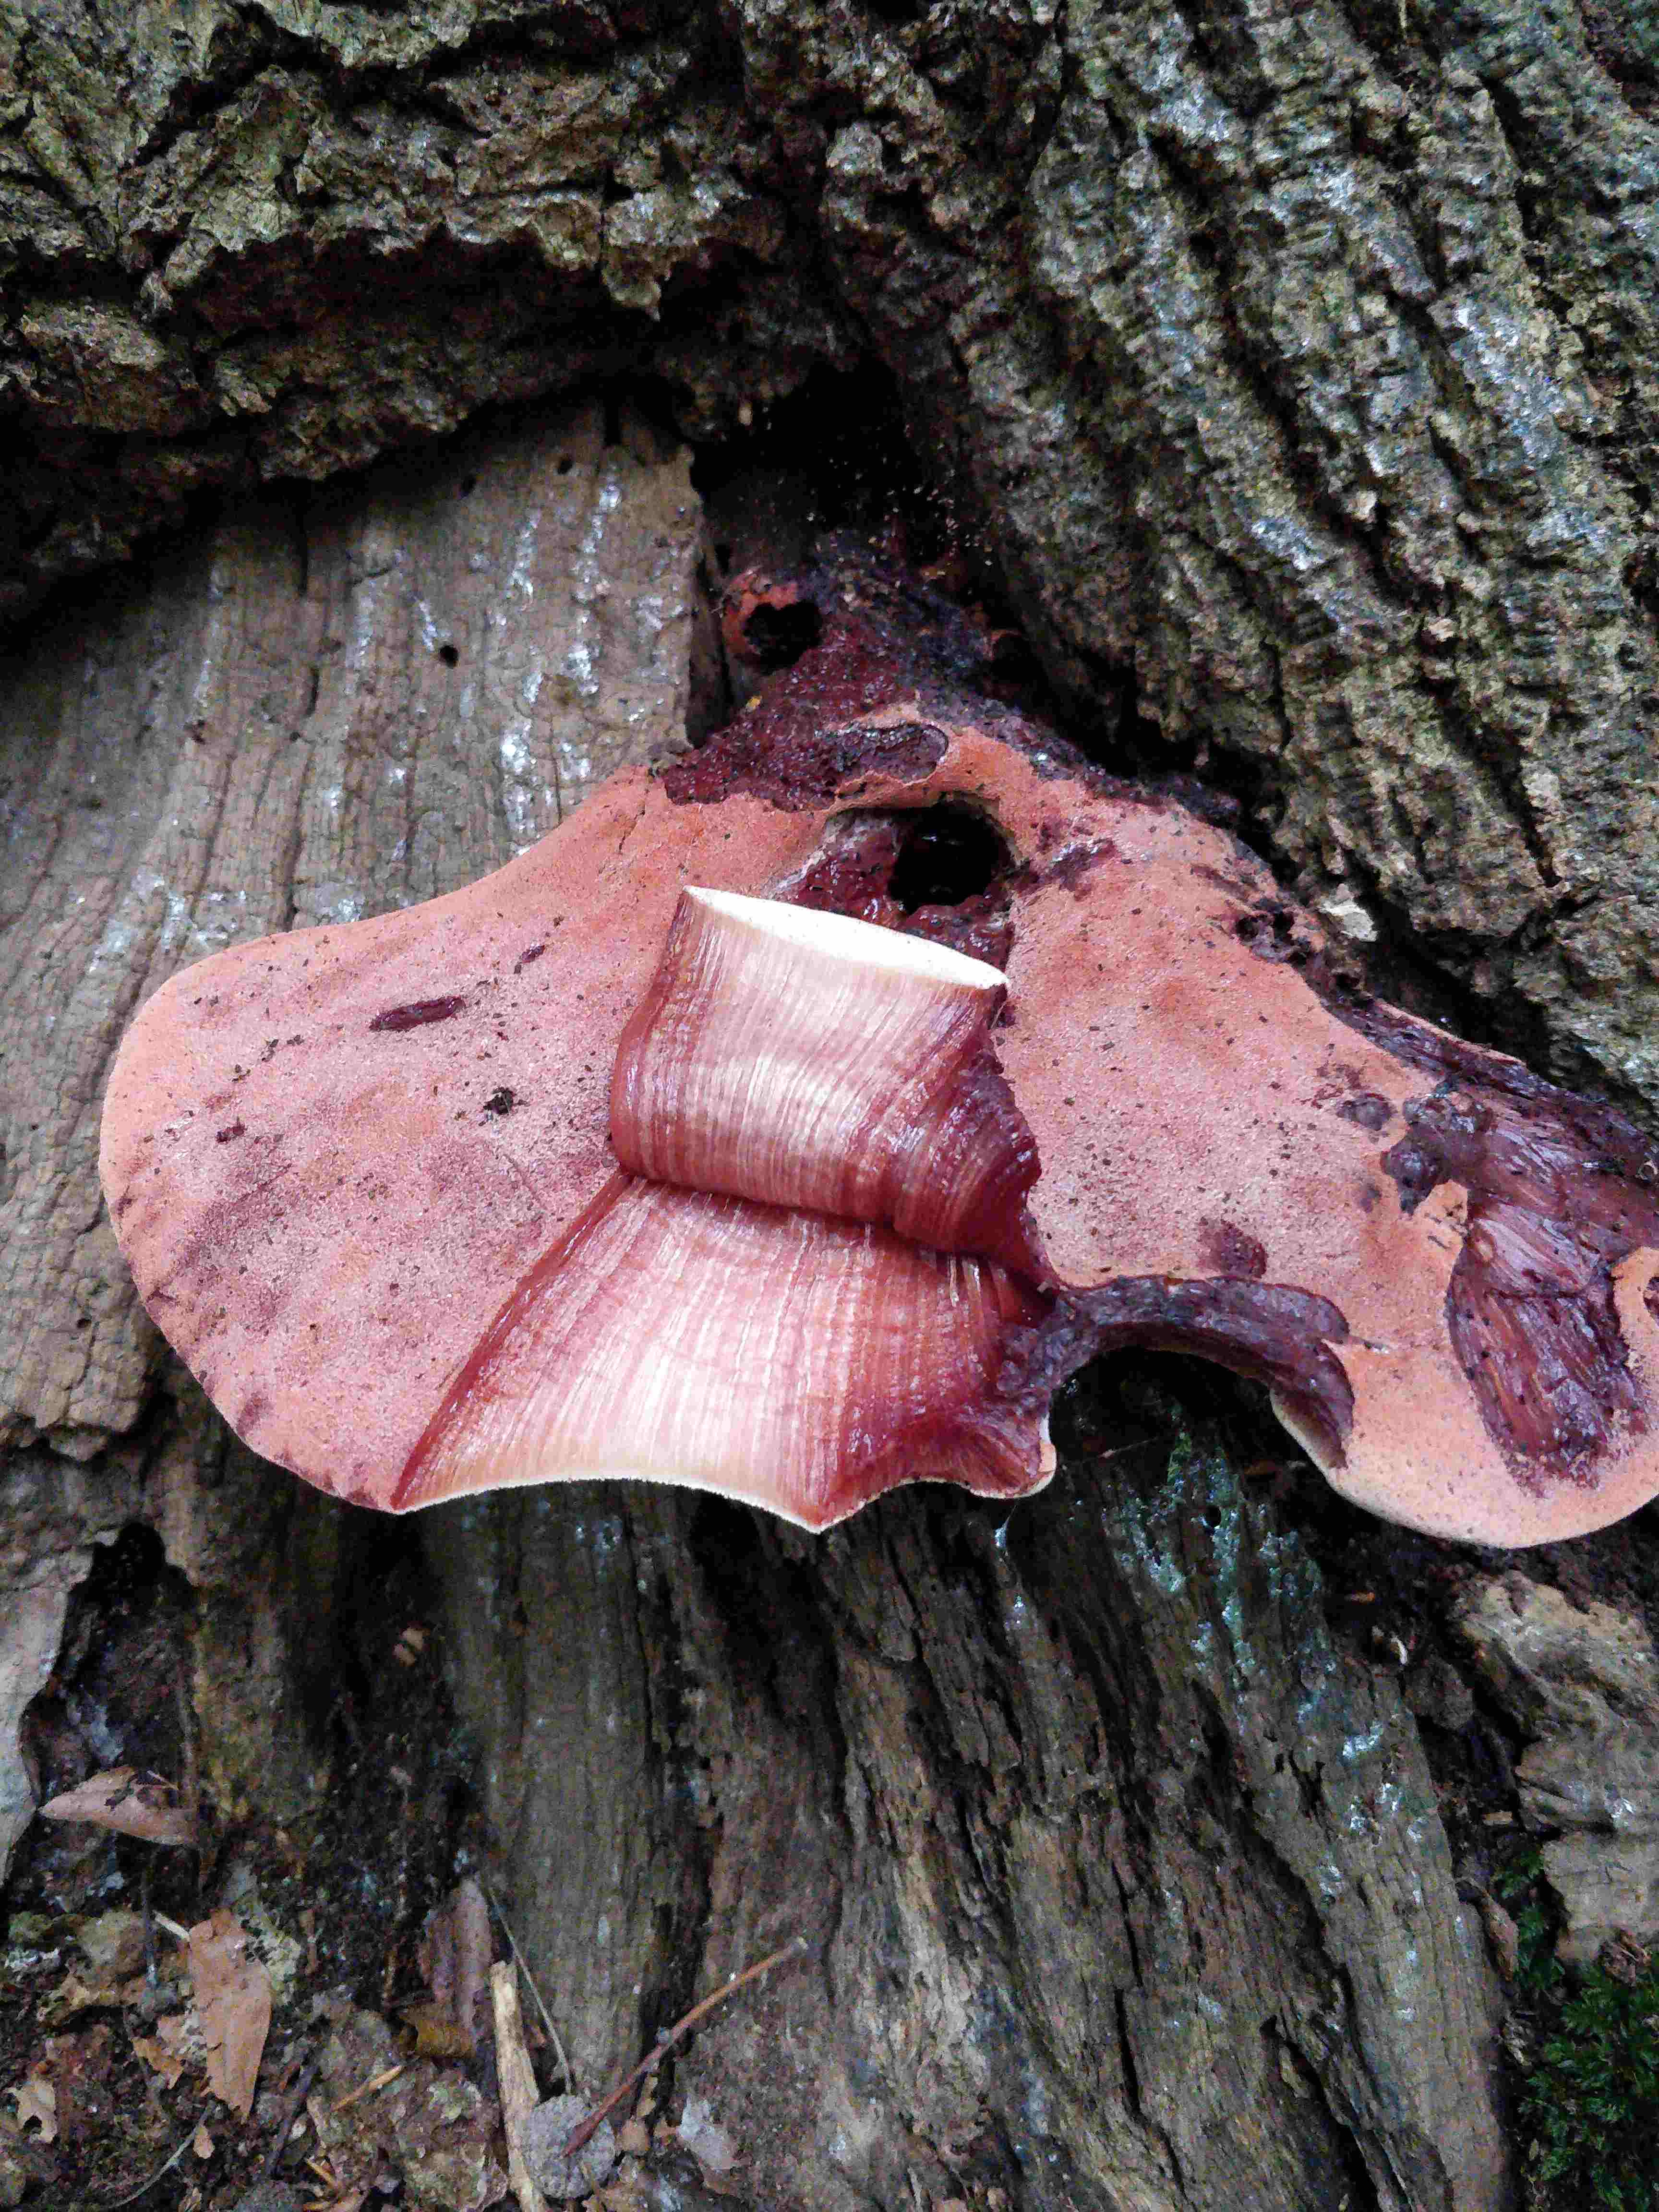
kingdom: Fungi
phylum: Basidiomycota
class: Agaricomycetes
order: Agaricales
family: Fistulinaceae
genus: Fistulina
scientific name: Fistulina hepatica
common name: oksetunge
